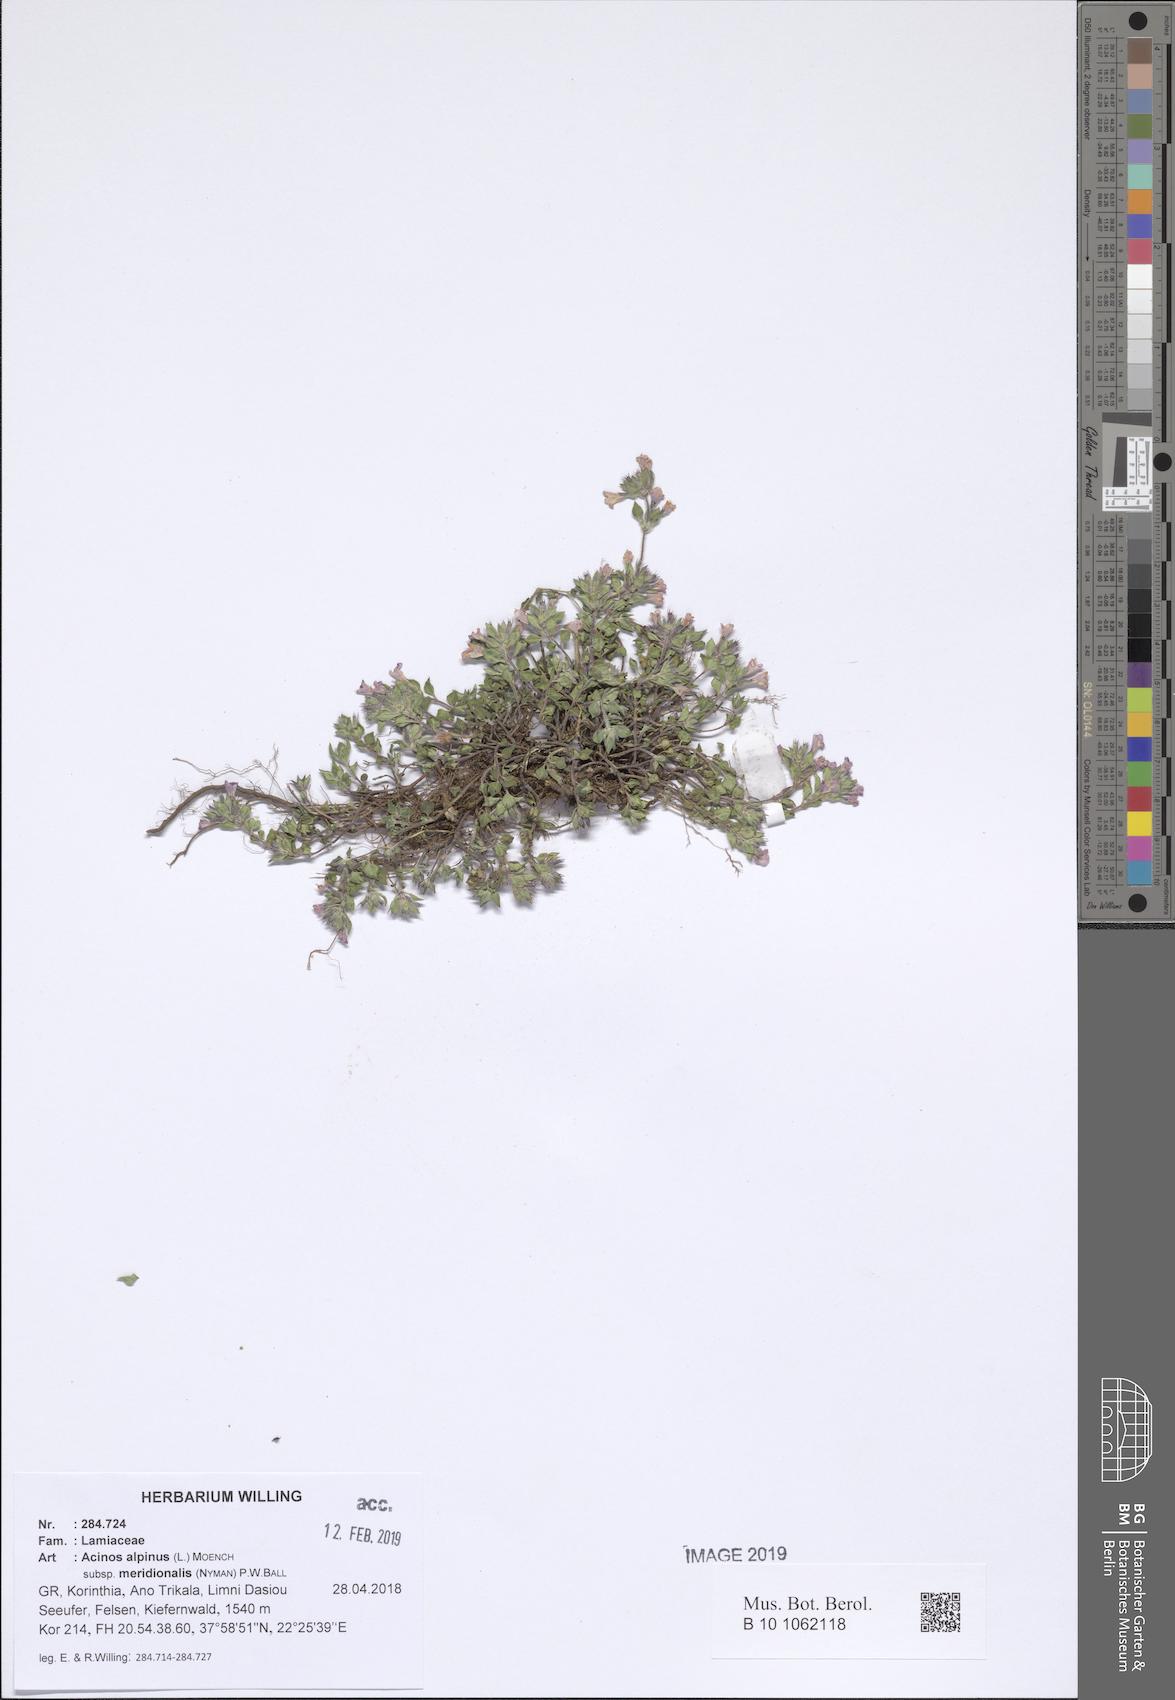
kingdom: Plantae
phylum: Tracheophyta
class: Magnoliopsida
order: Lamiales
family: Lamiaceae
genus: Clinopodium
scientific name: Clinopodium alpinum
